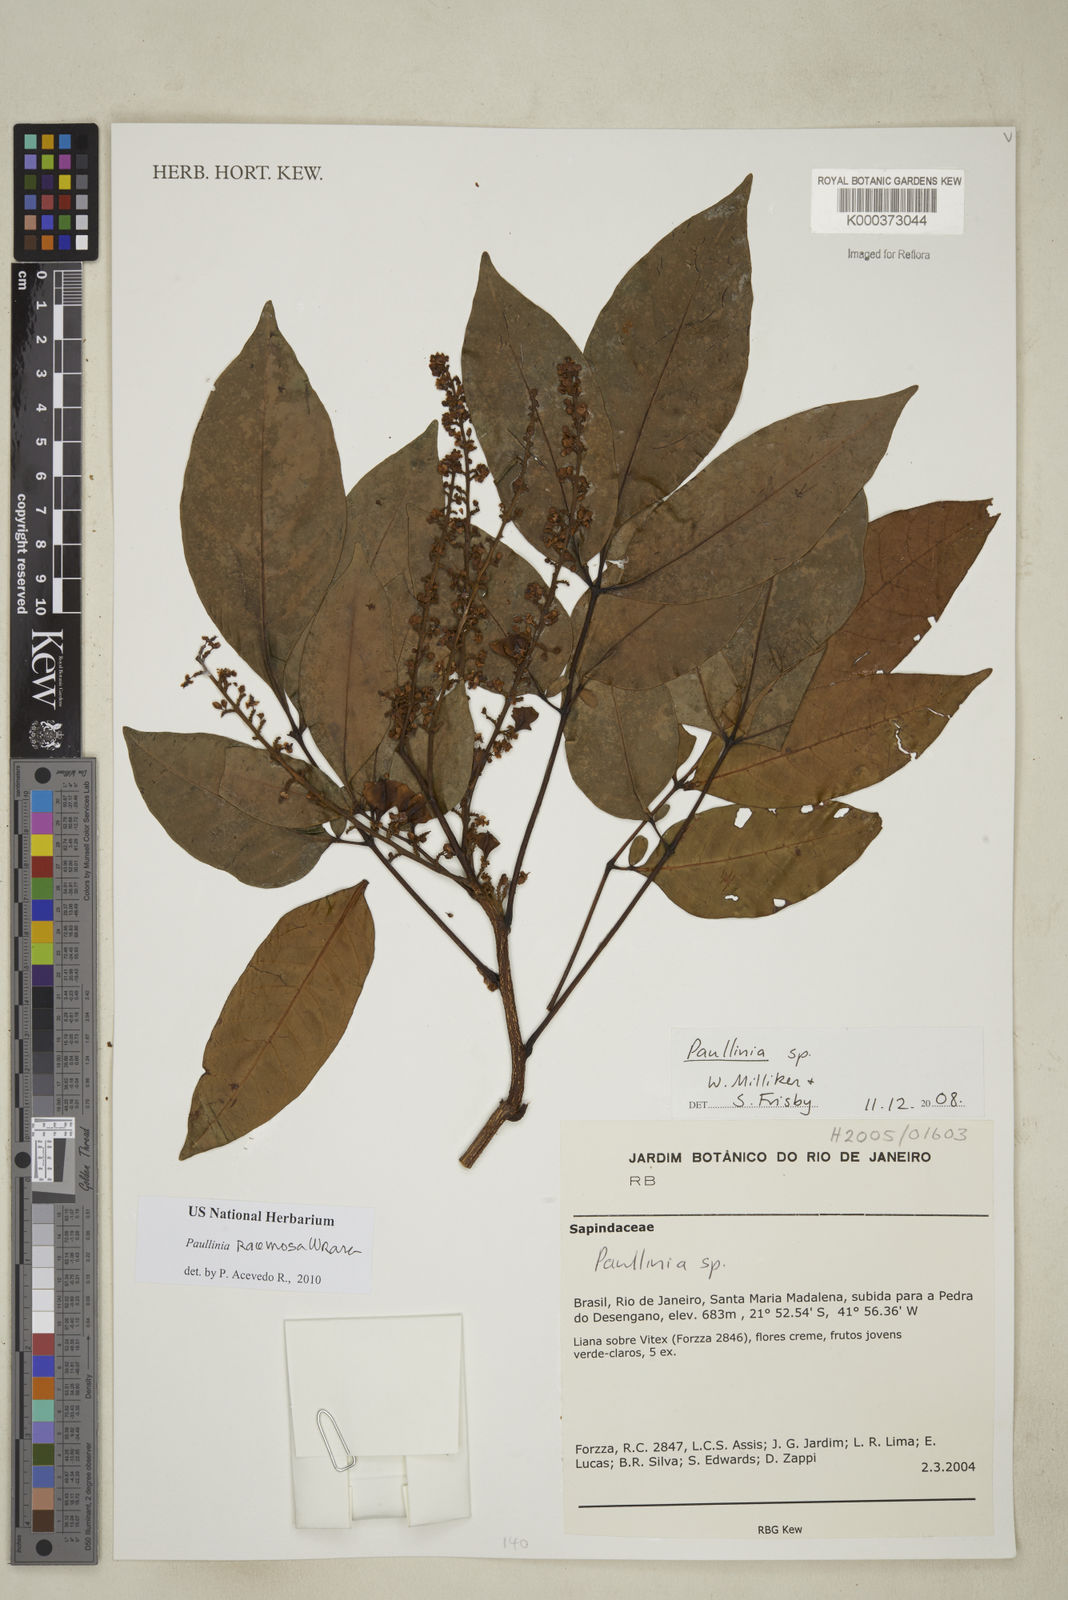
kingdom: Plantae
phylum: Tracheophyta
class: Magnoliopsida
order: Sapindales
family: Sapindaceae
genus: Paullinia
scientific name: Paullinia
